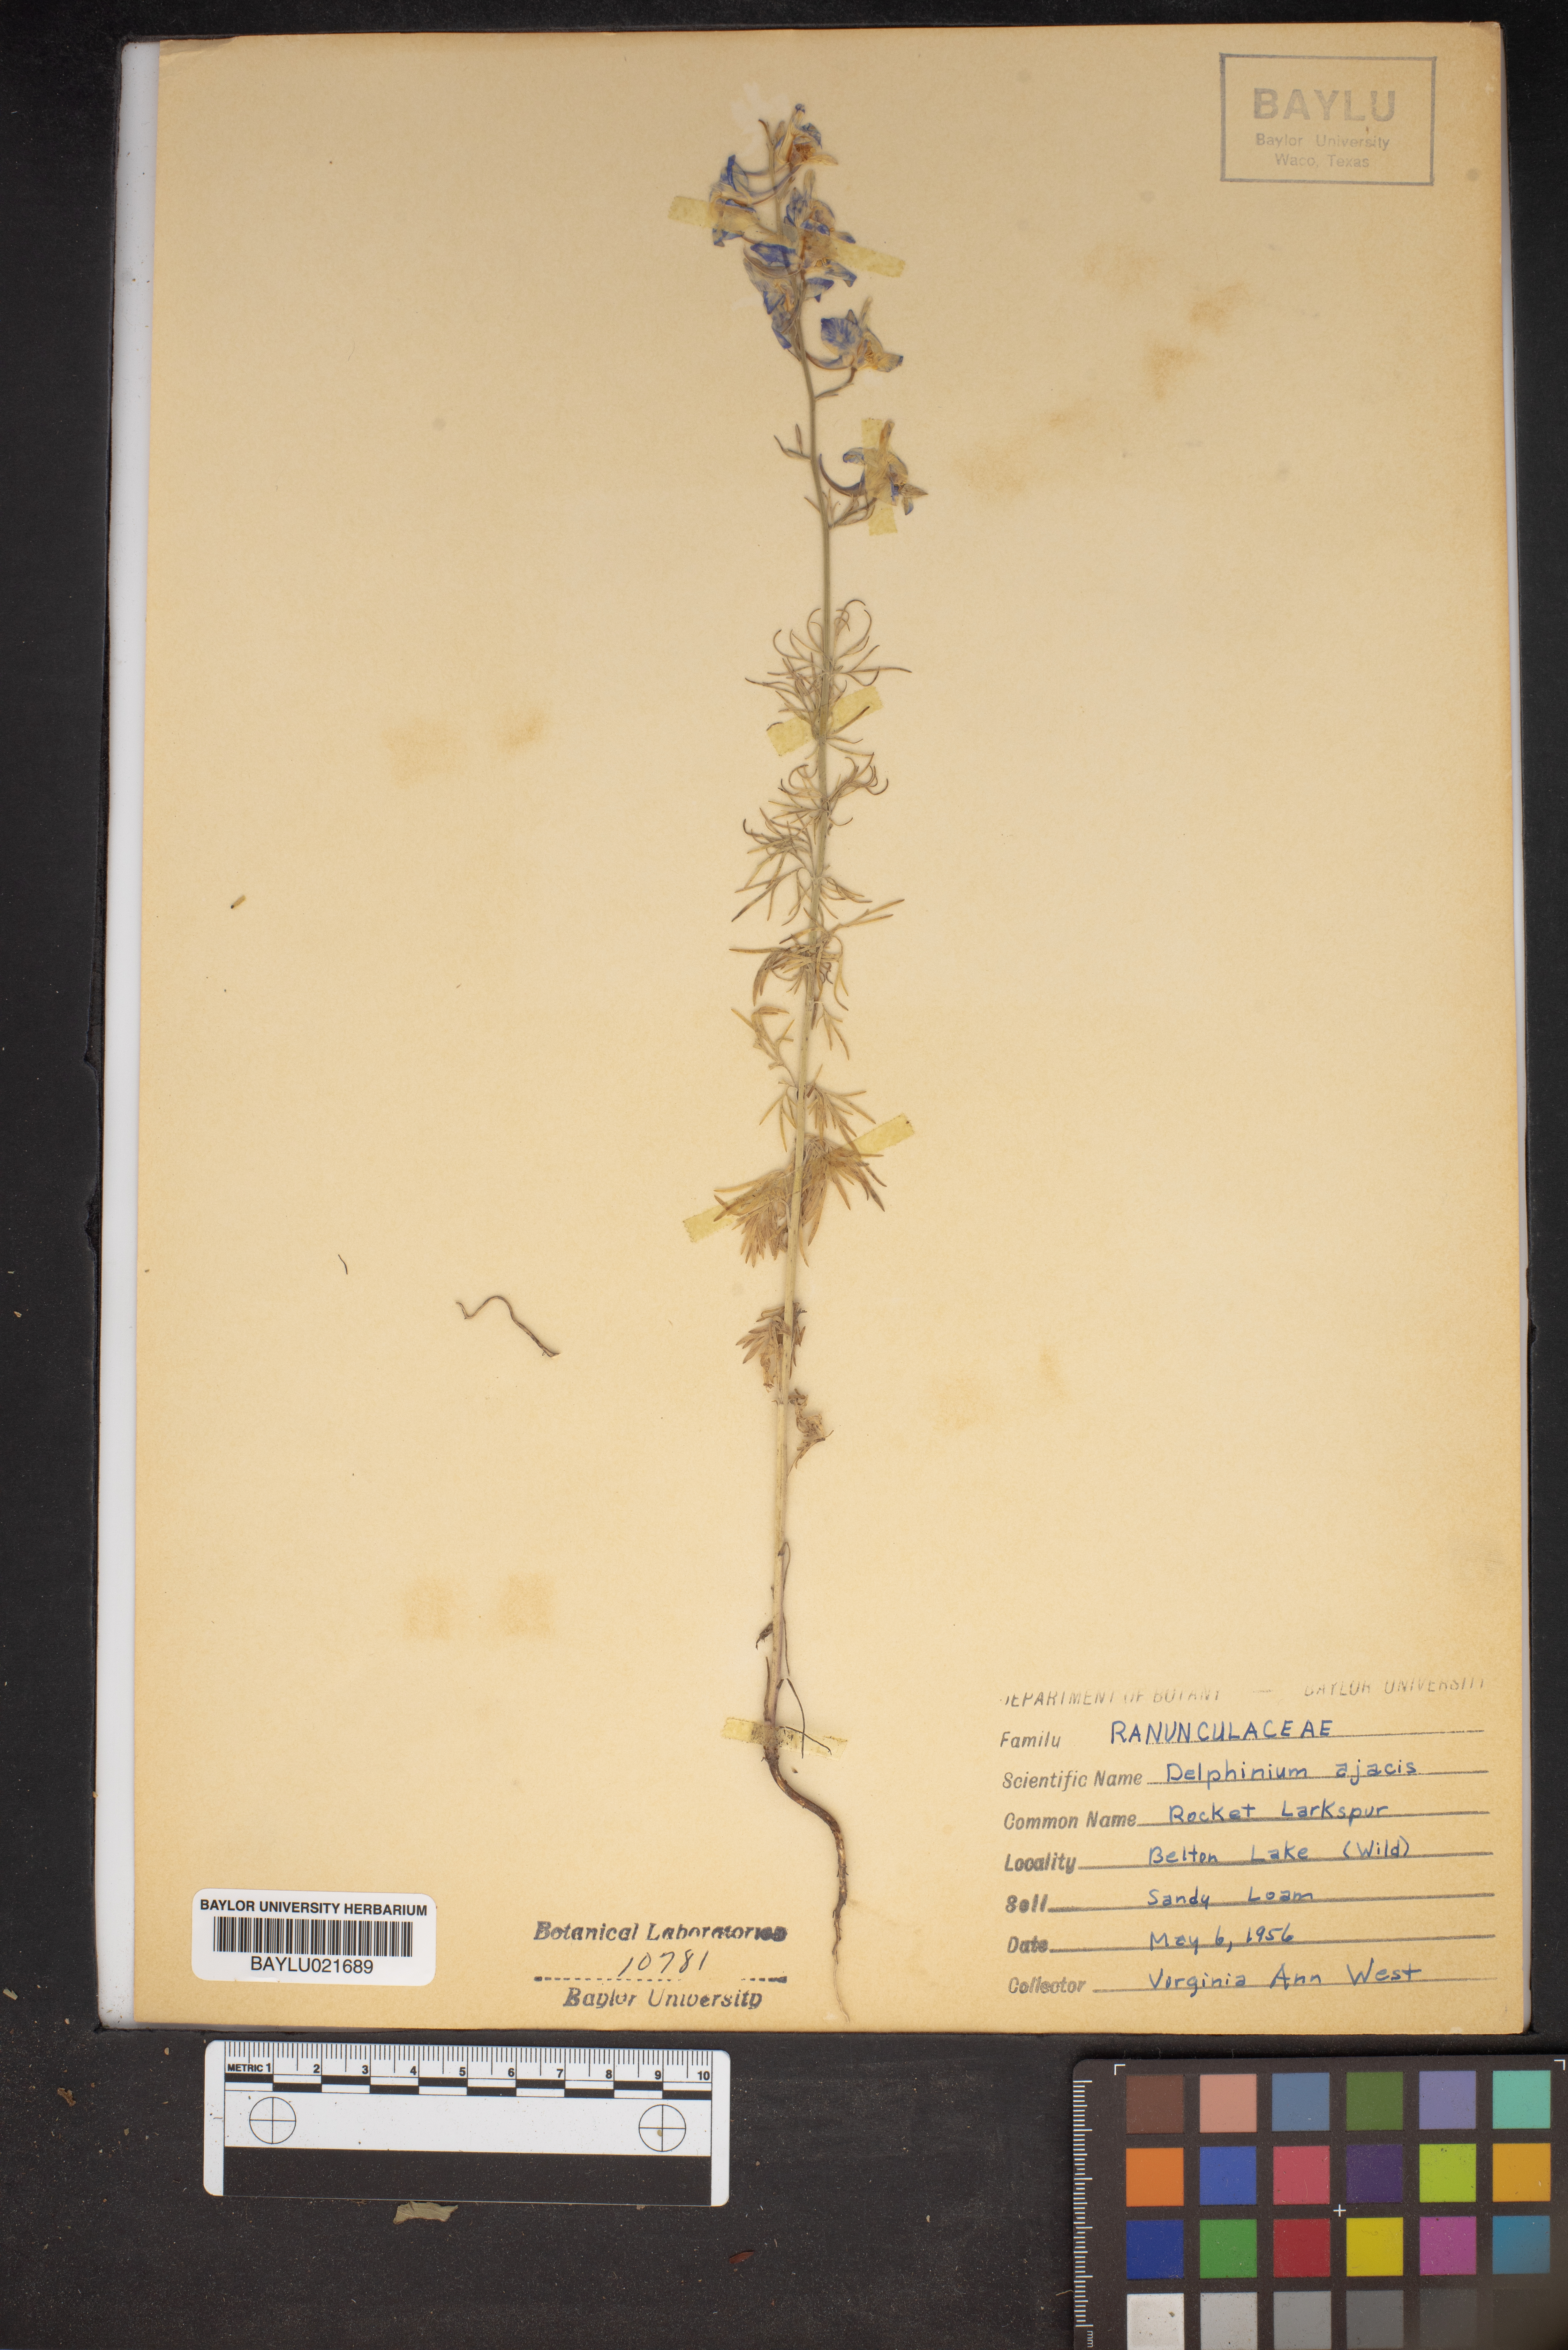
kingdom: Plantae
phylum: Tracheophyta
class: Magnoliopsida
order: Ranunculales
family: Ranunculaceae
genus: Delphinium
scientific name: Delphinium ajacis
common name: Doubtful knight's-spur
